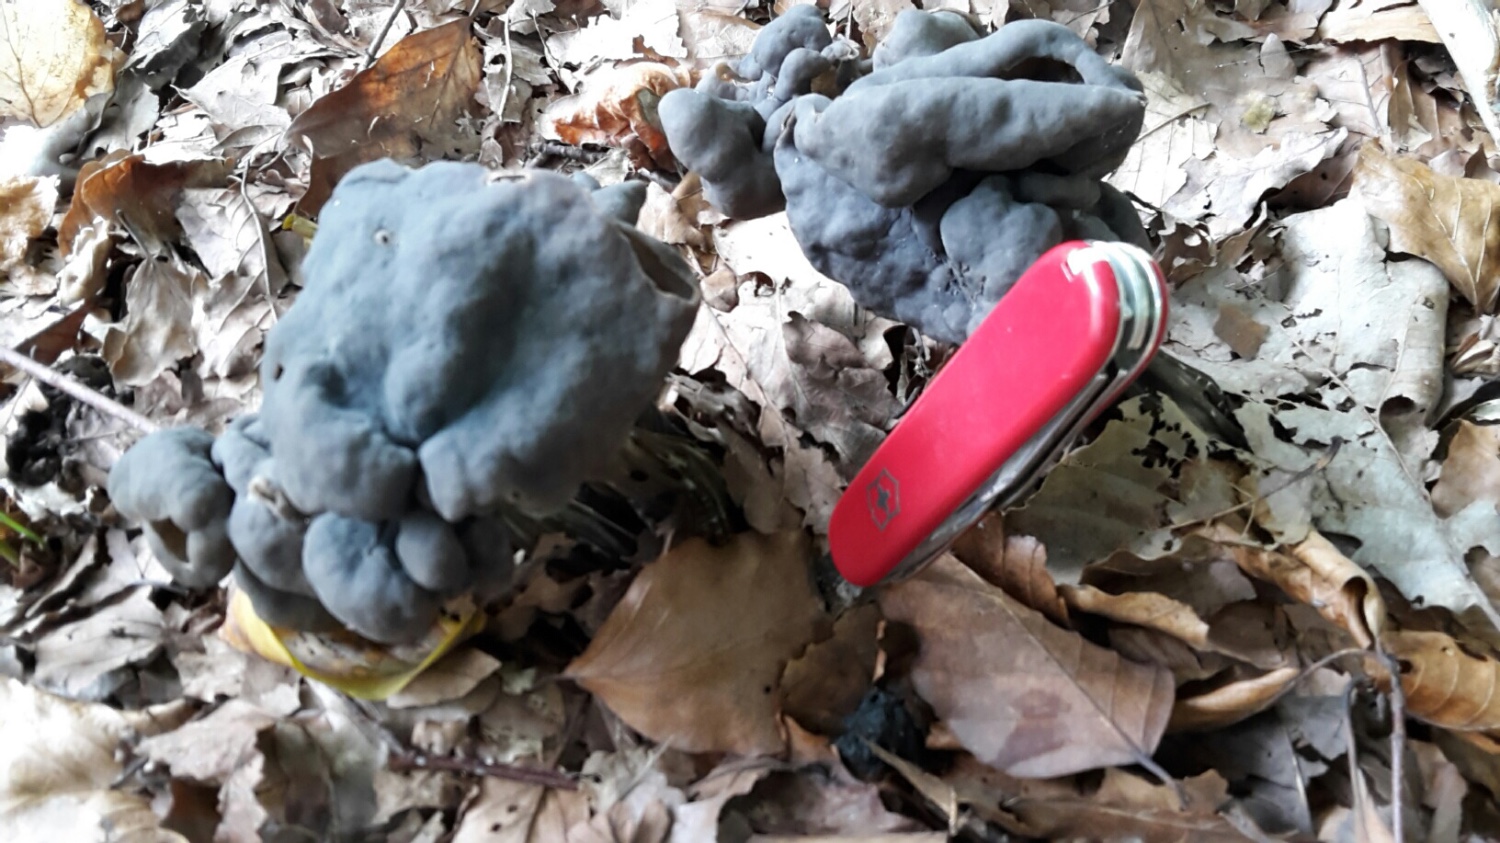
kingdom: Fungi
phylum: Ascomycota
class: Pezizomycetes
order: Pezizales
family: Helvellaceae
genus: Helvella
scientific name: Helvella lacunosa
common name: grubet foldhat
